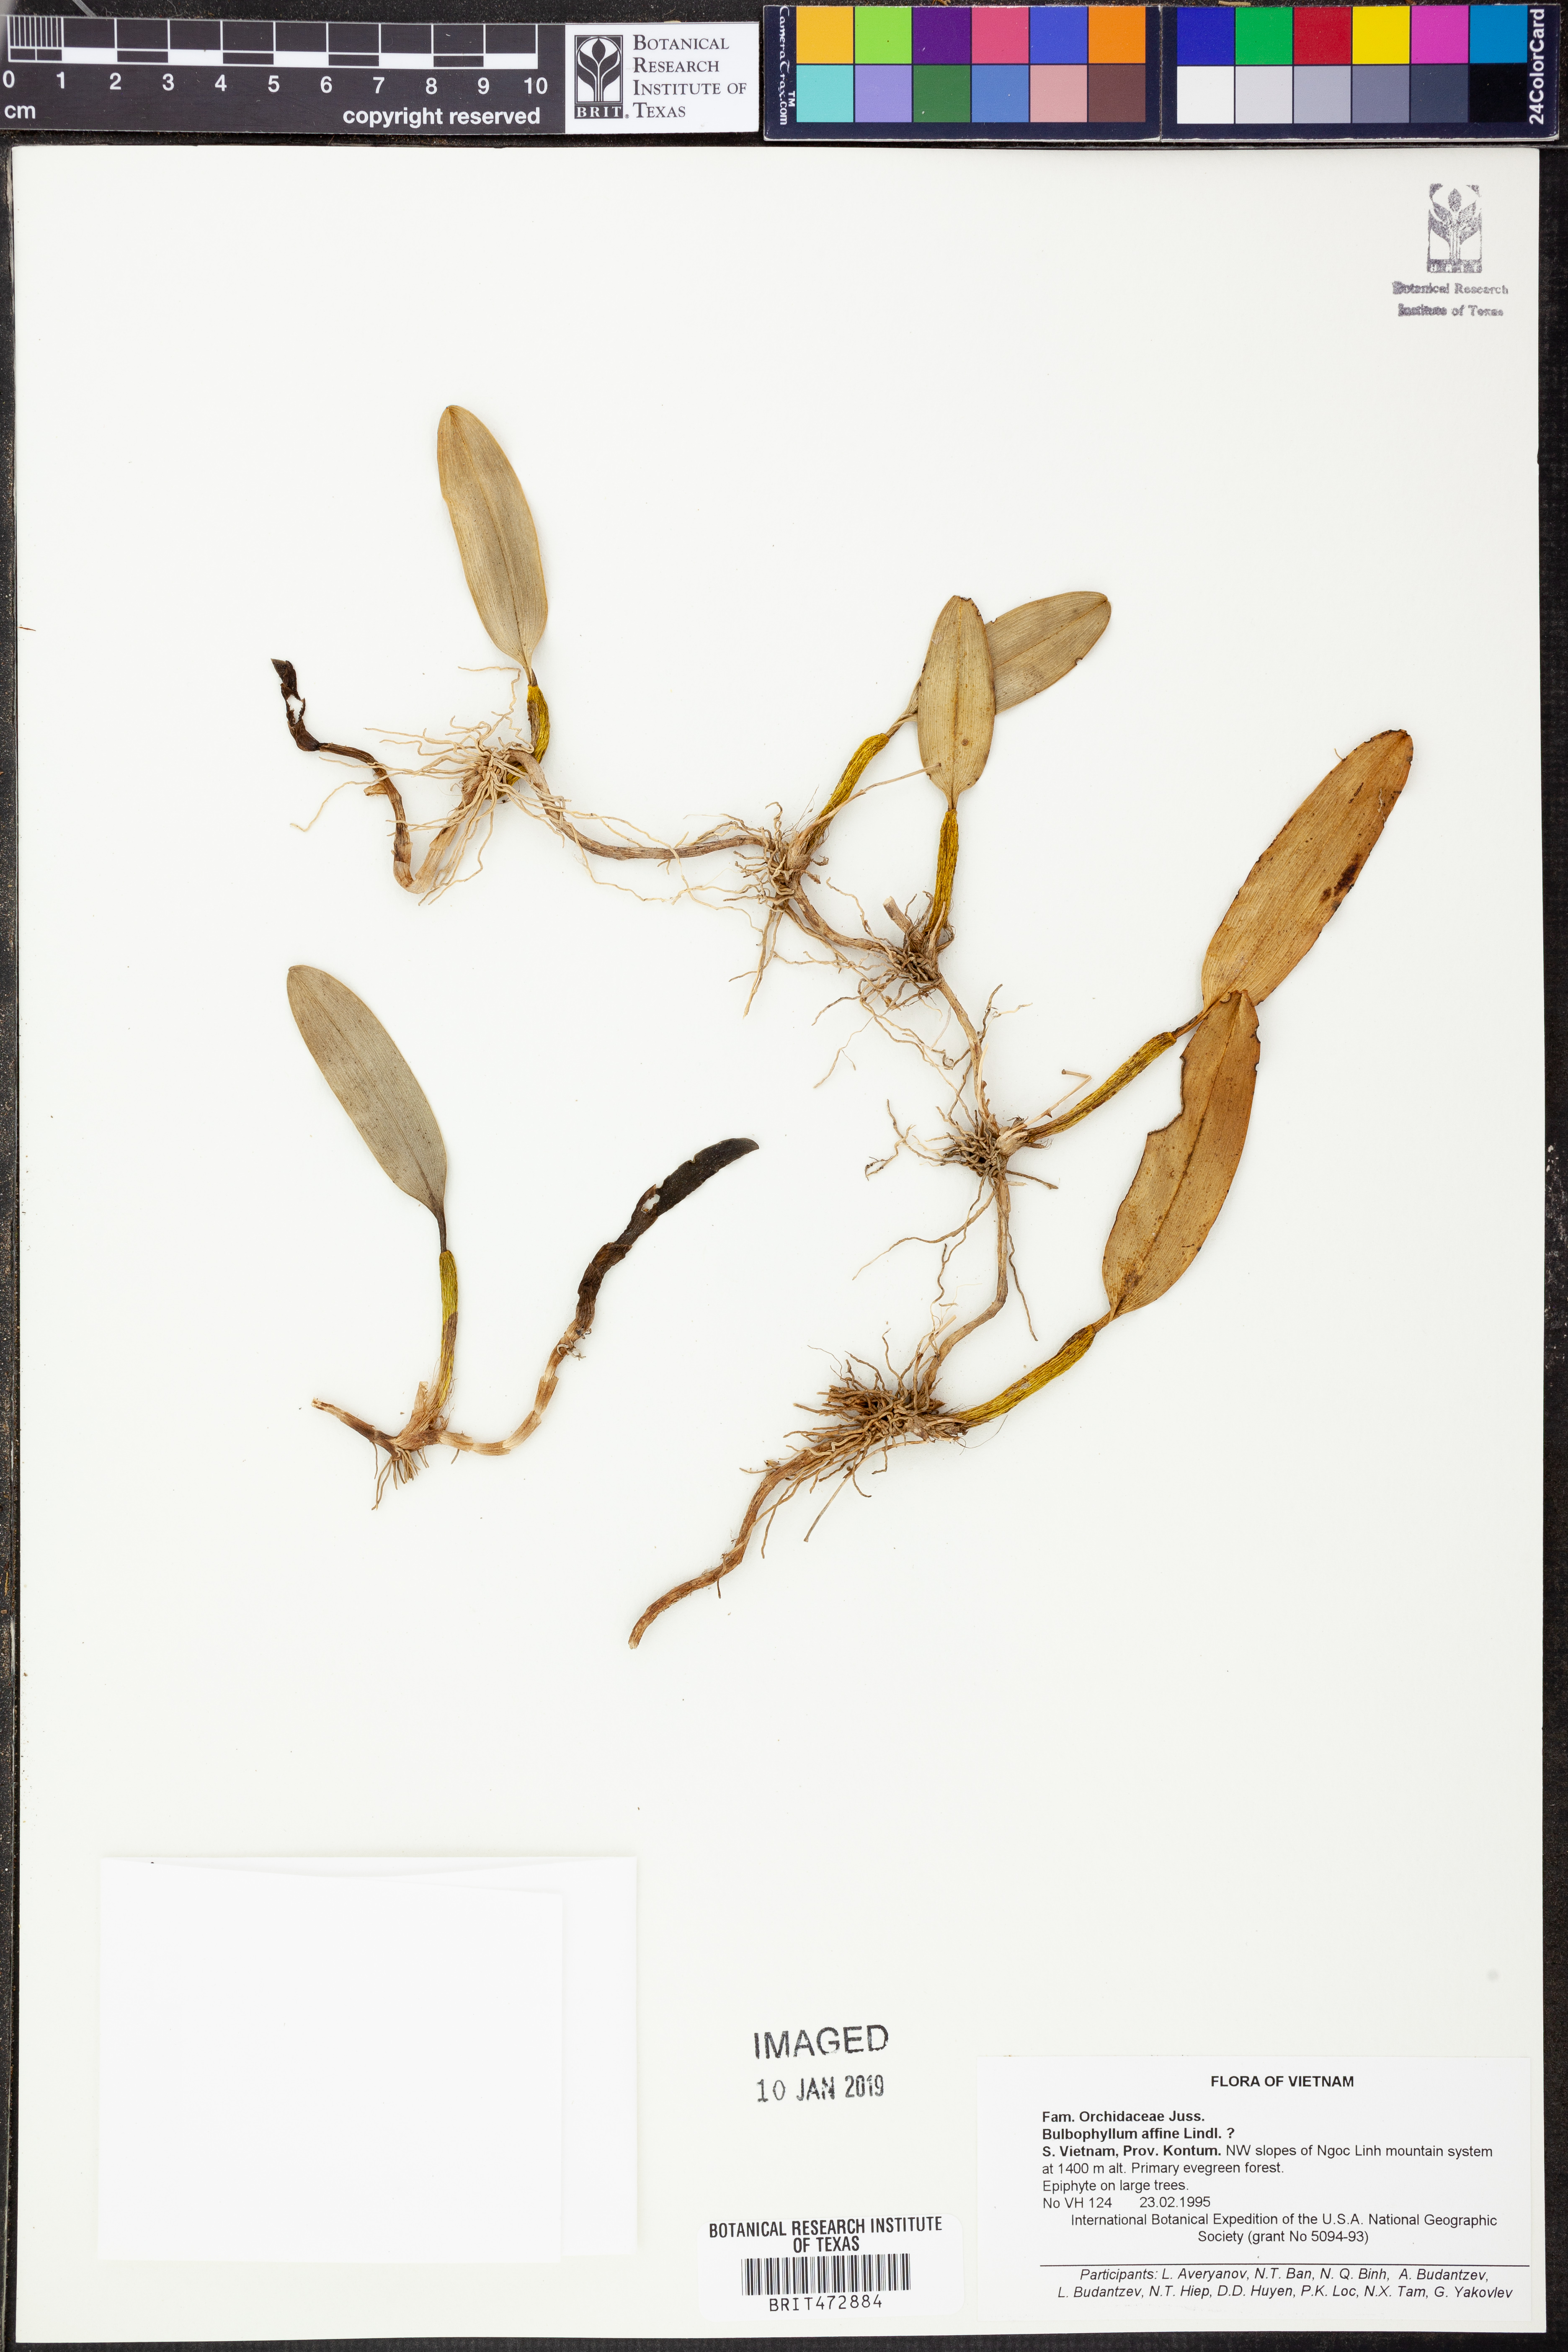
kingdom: Plantae
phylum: Tracheophyta
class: Liliopsida
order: Asparagales
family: Orchidaceae
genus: Bulbophyllum
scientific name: Bulbophyllum affine
